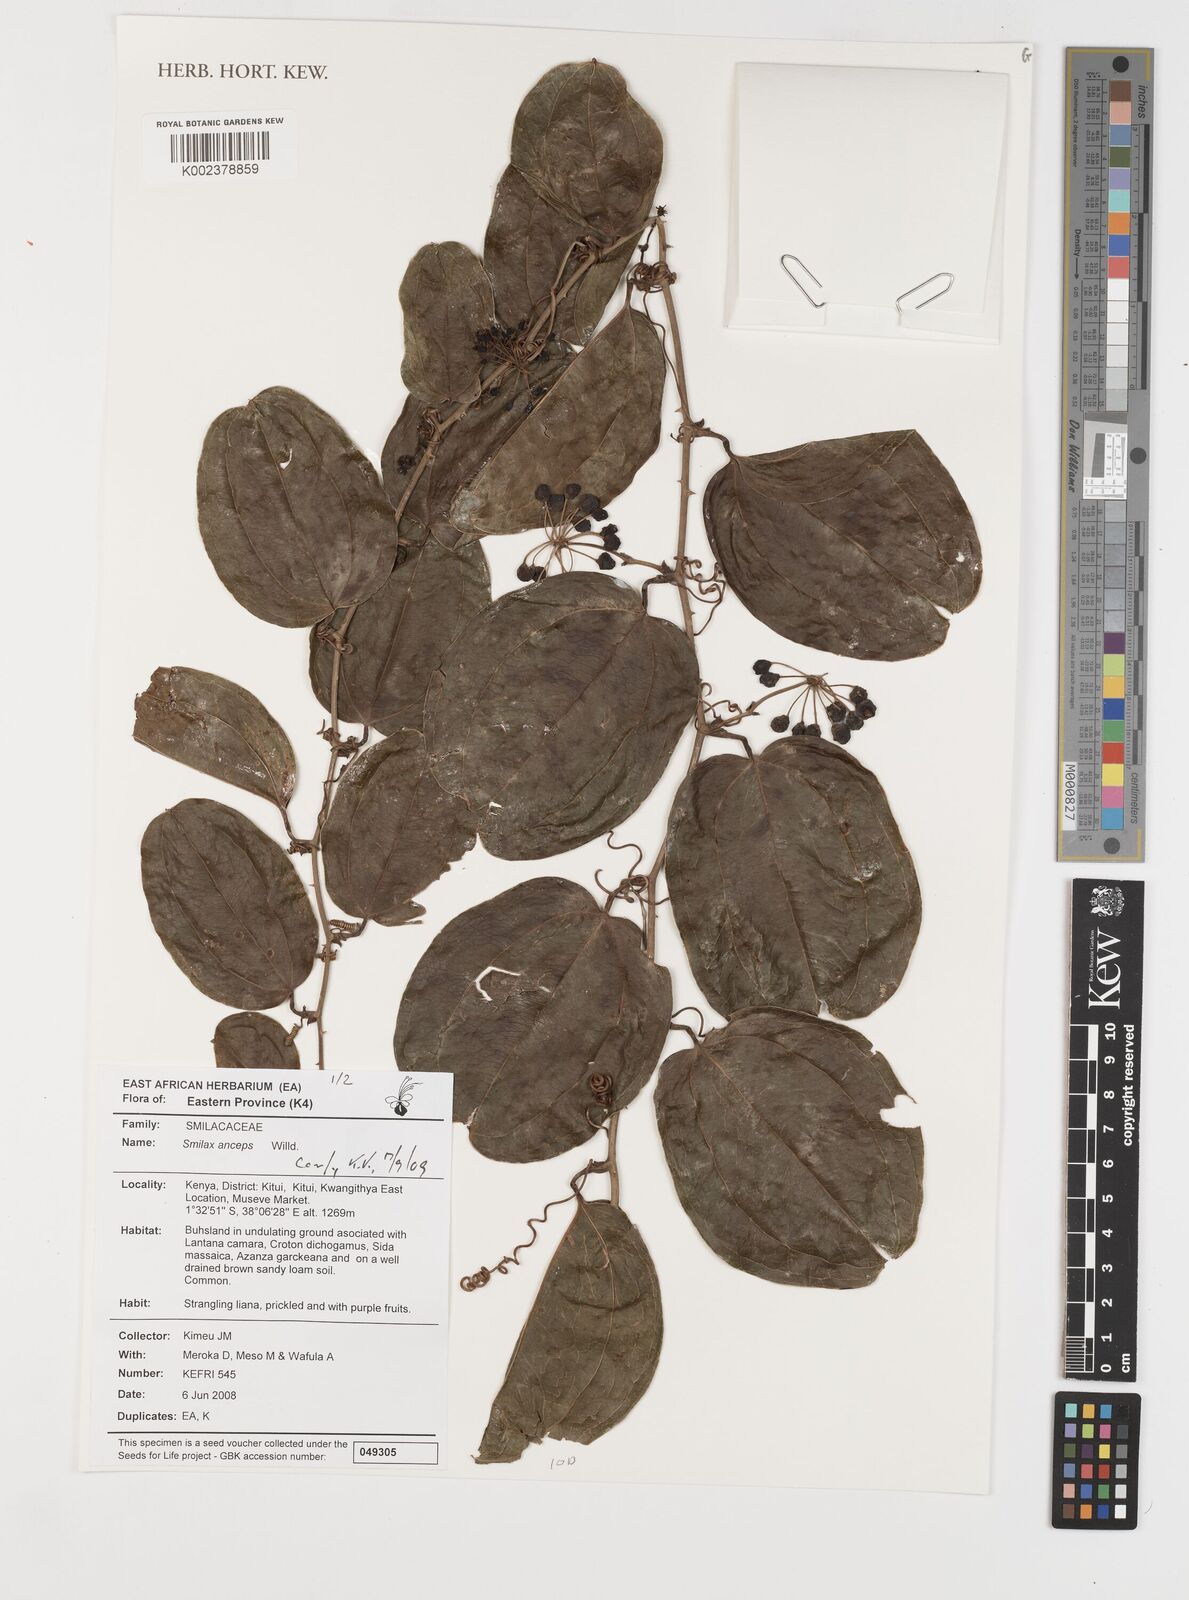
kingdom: Plantae
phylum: Tracheophyta
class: Liliopsida
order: Liliales
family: Smilacaceae
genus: Smilax
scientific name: Smilax anceps
